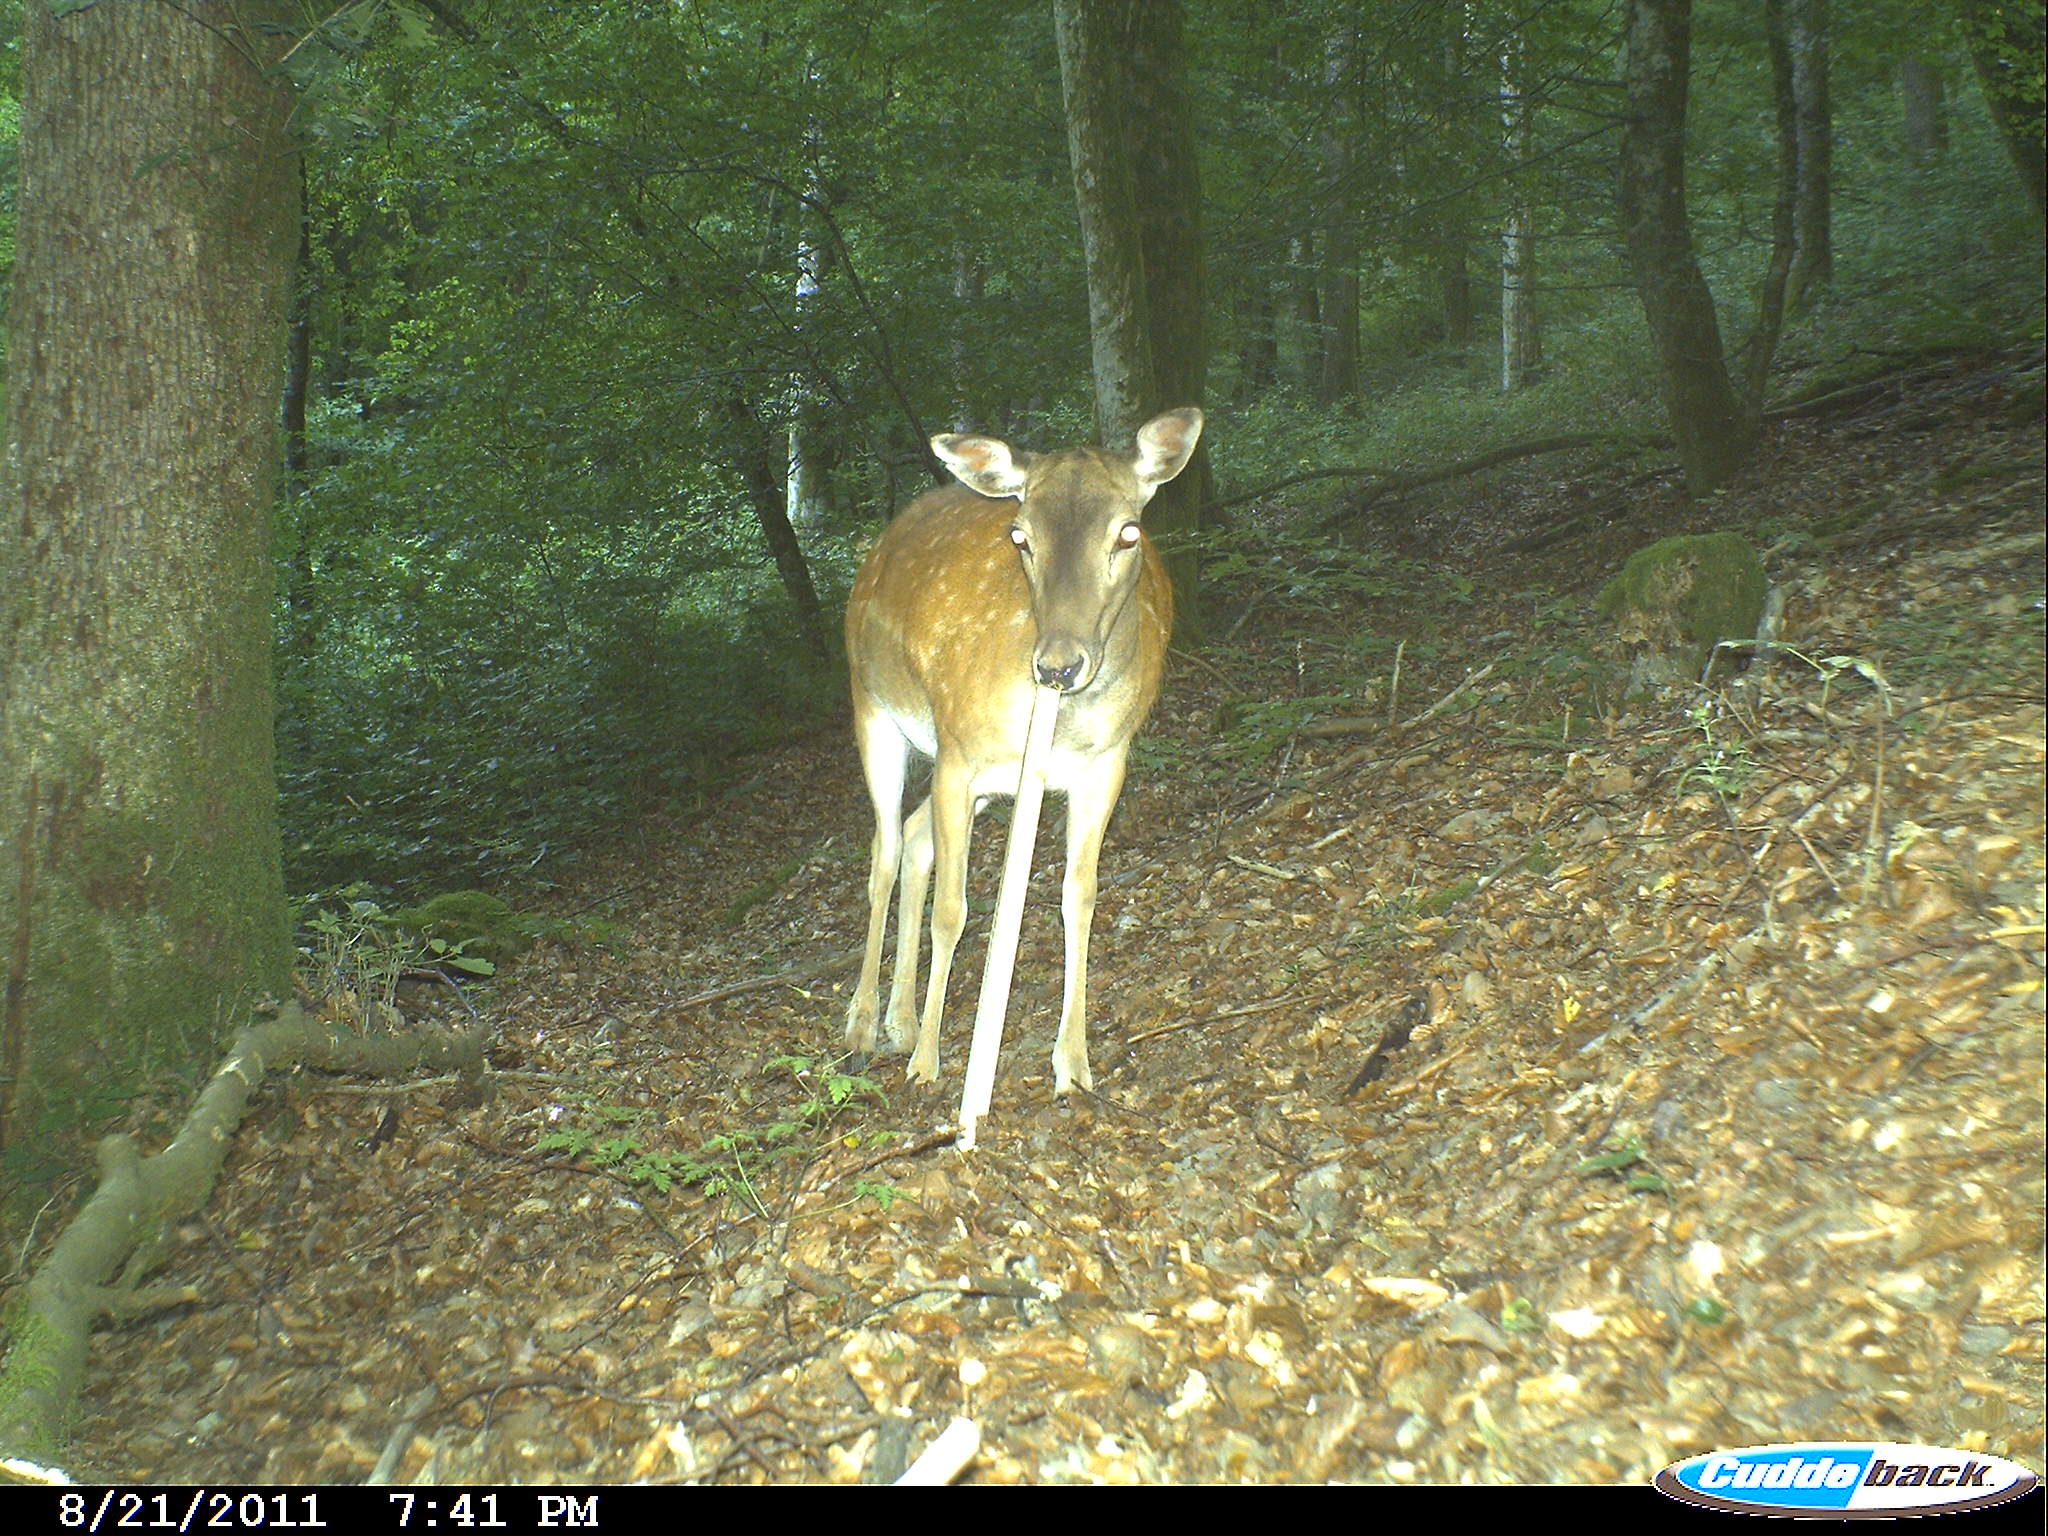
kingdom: Animalia
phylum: Chordata
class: Mammalia
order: Artiodactyla
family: Cervidae
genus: Dama
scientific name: Dama dama
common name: Fallow deer
